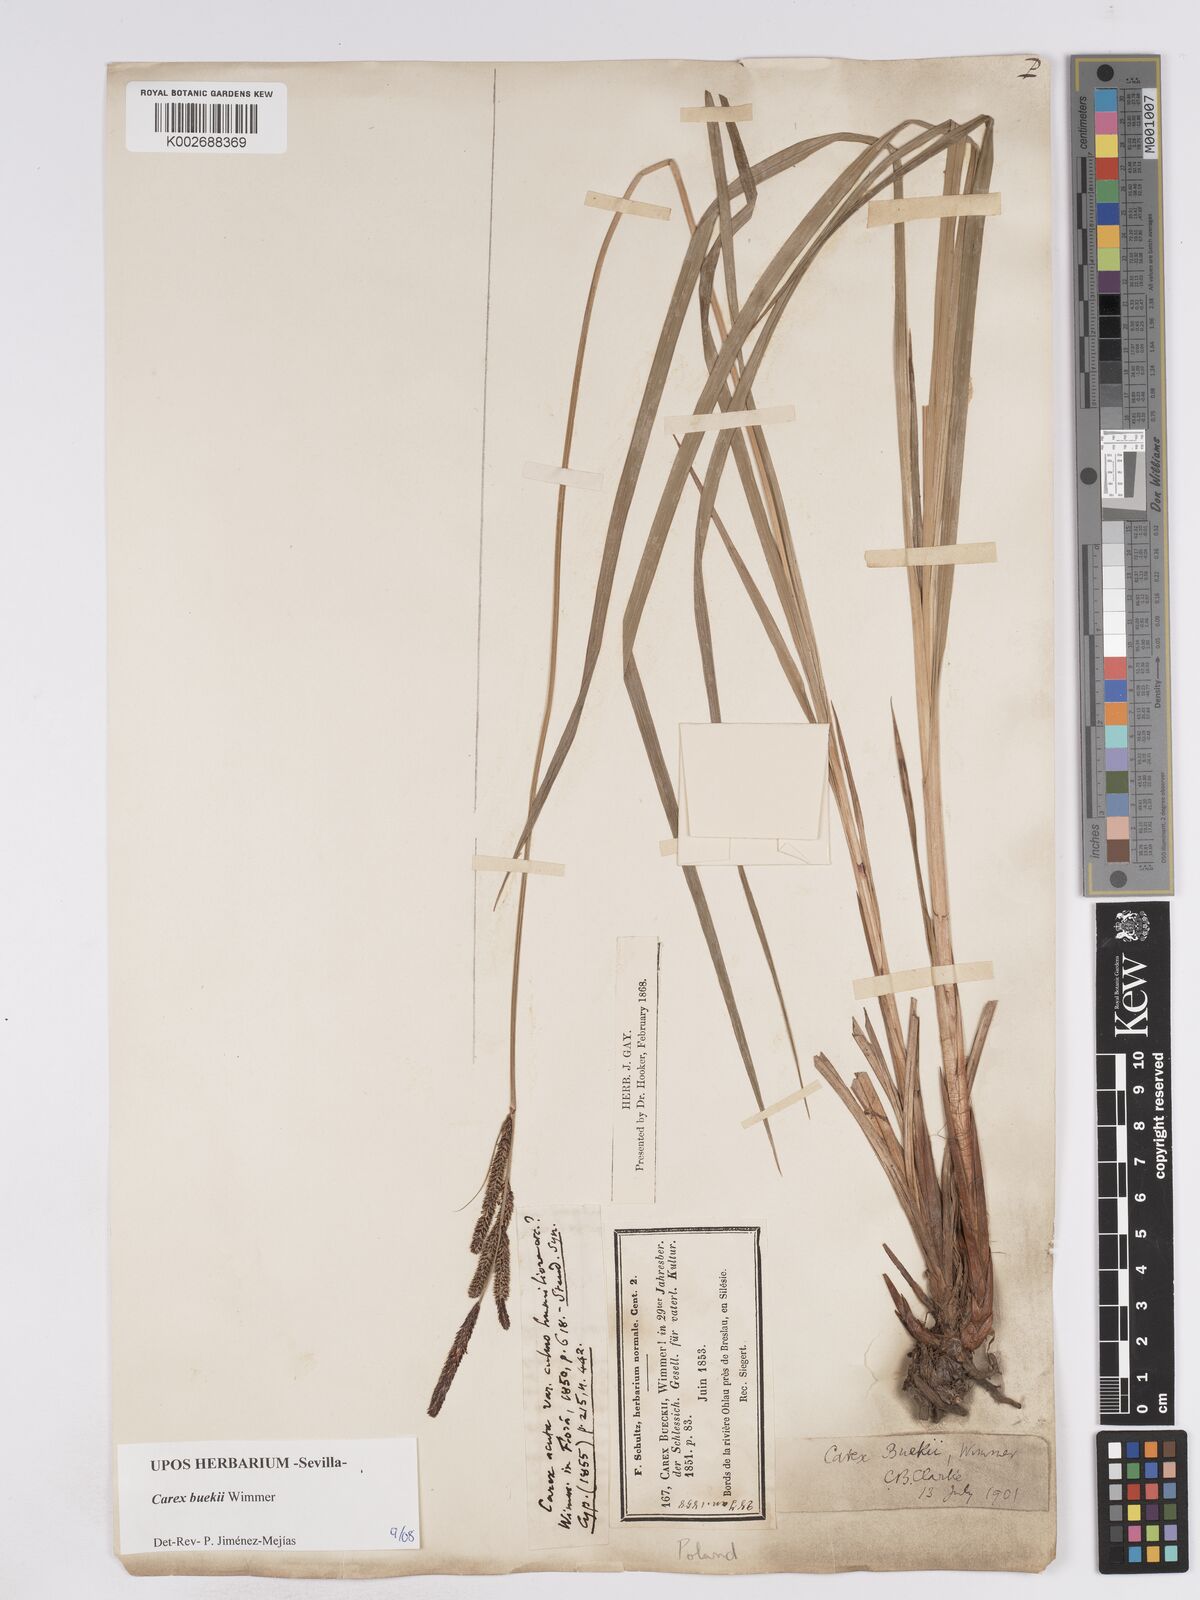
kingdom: Plantae
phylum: Tracheophyta
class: Liliopsida
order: Poales
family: Cyperaceae
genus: Carex
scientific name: Carex buekii
